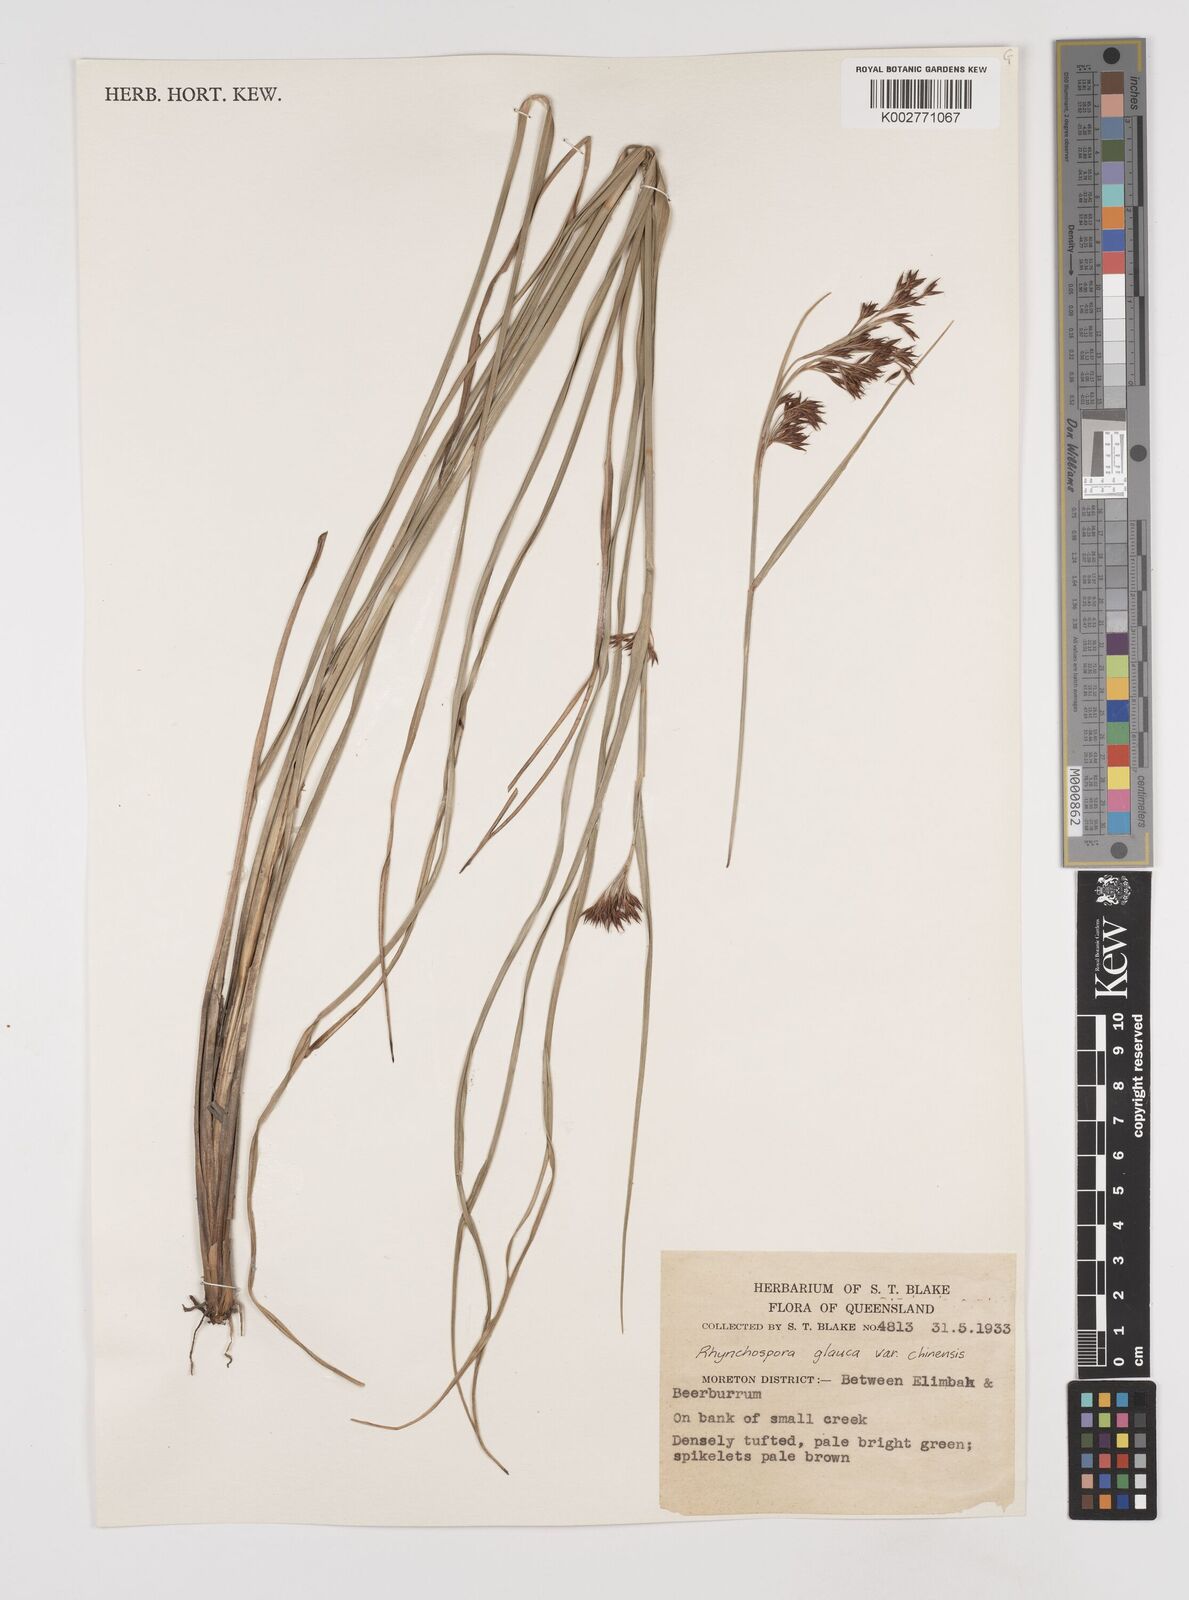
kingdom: Plantae
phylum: Tracheophyta
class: Liliopsida
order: Poales
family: Cyperaceae
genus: Rhynchospora
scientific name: Rhynchospora rugosa
